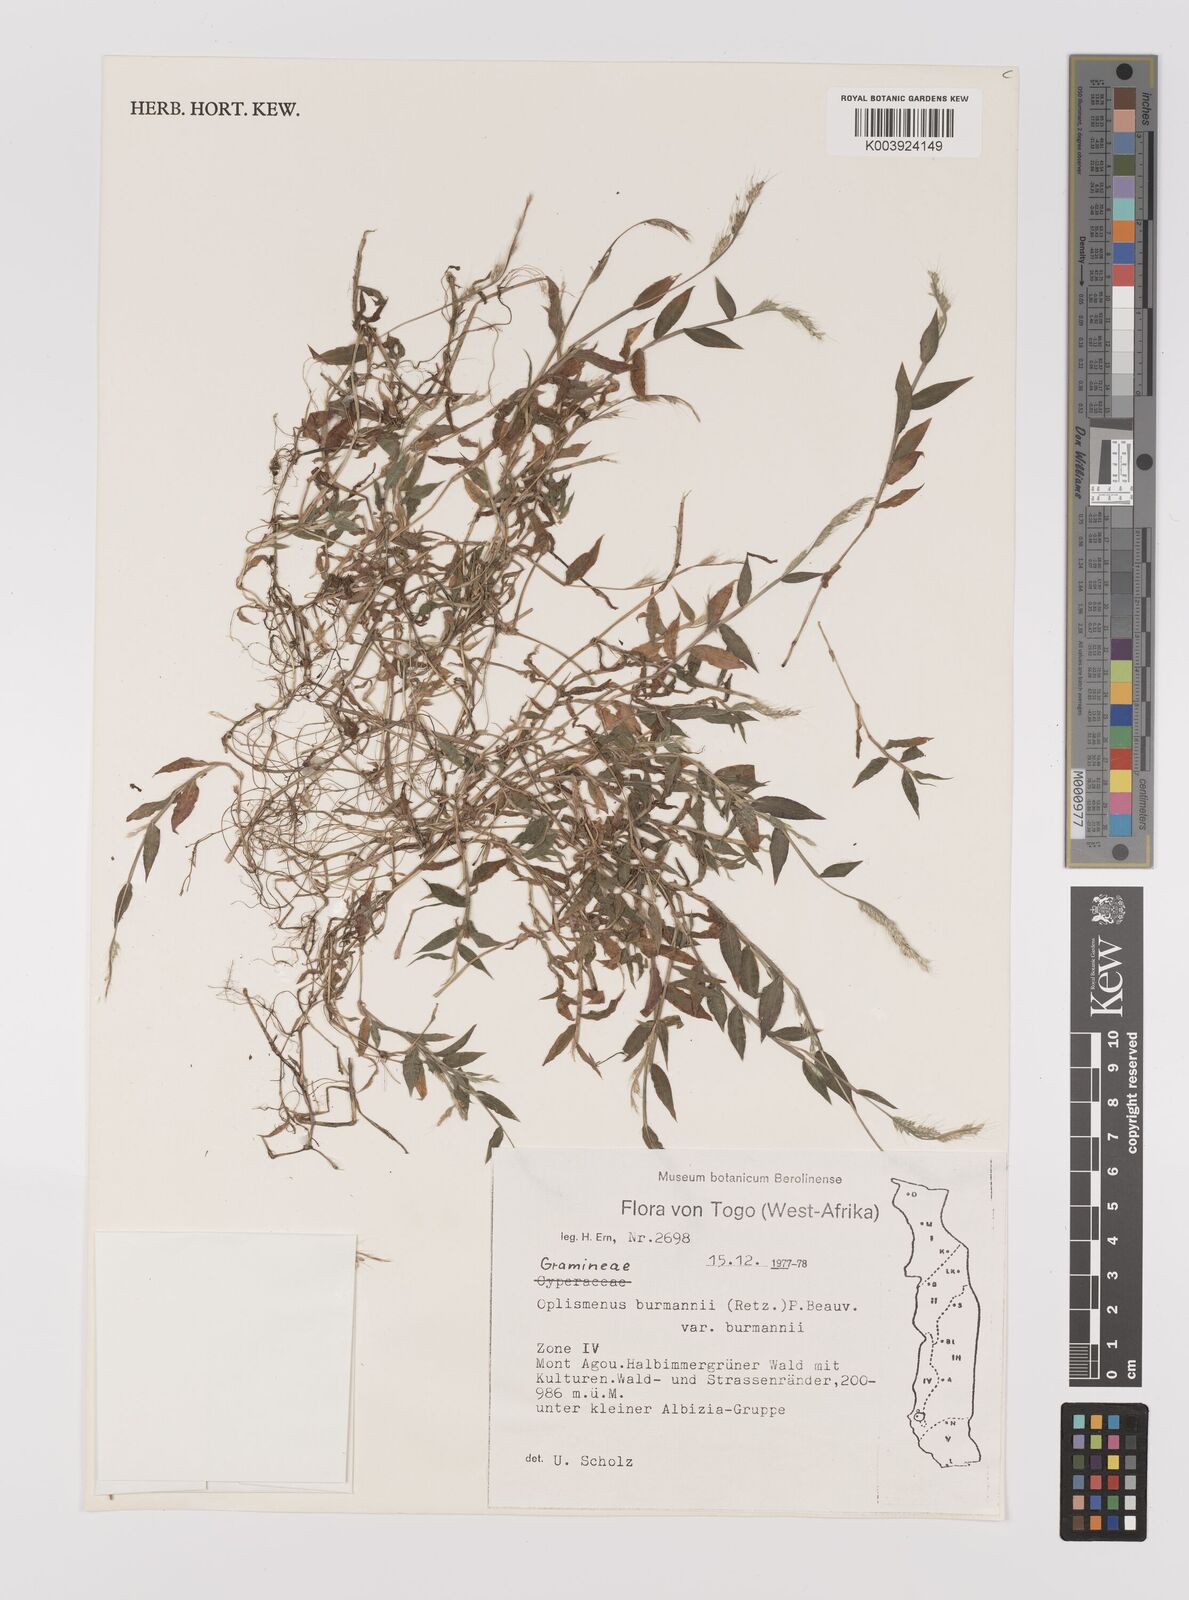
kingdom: Plantae
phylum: Tracheophyta
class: Liliopsida
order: Poales
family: Poaceae
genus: Oplismenus
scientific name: Oplismenus burmanni
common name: Burmann's basketgrass
